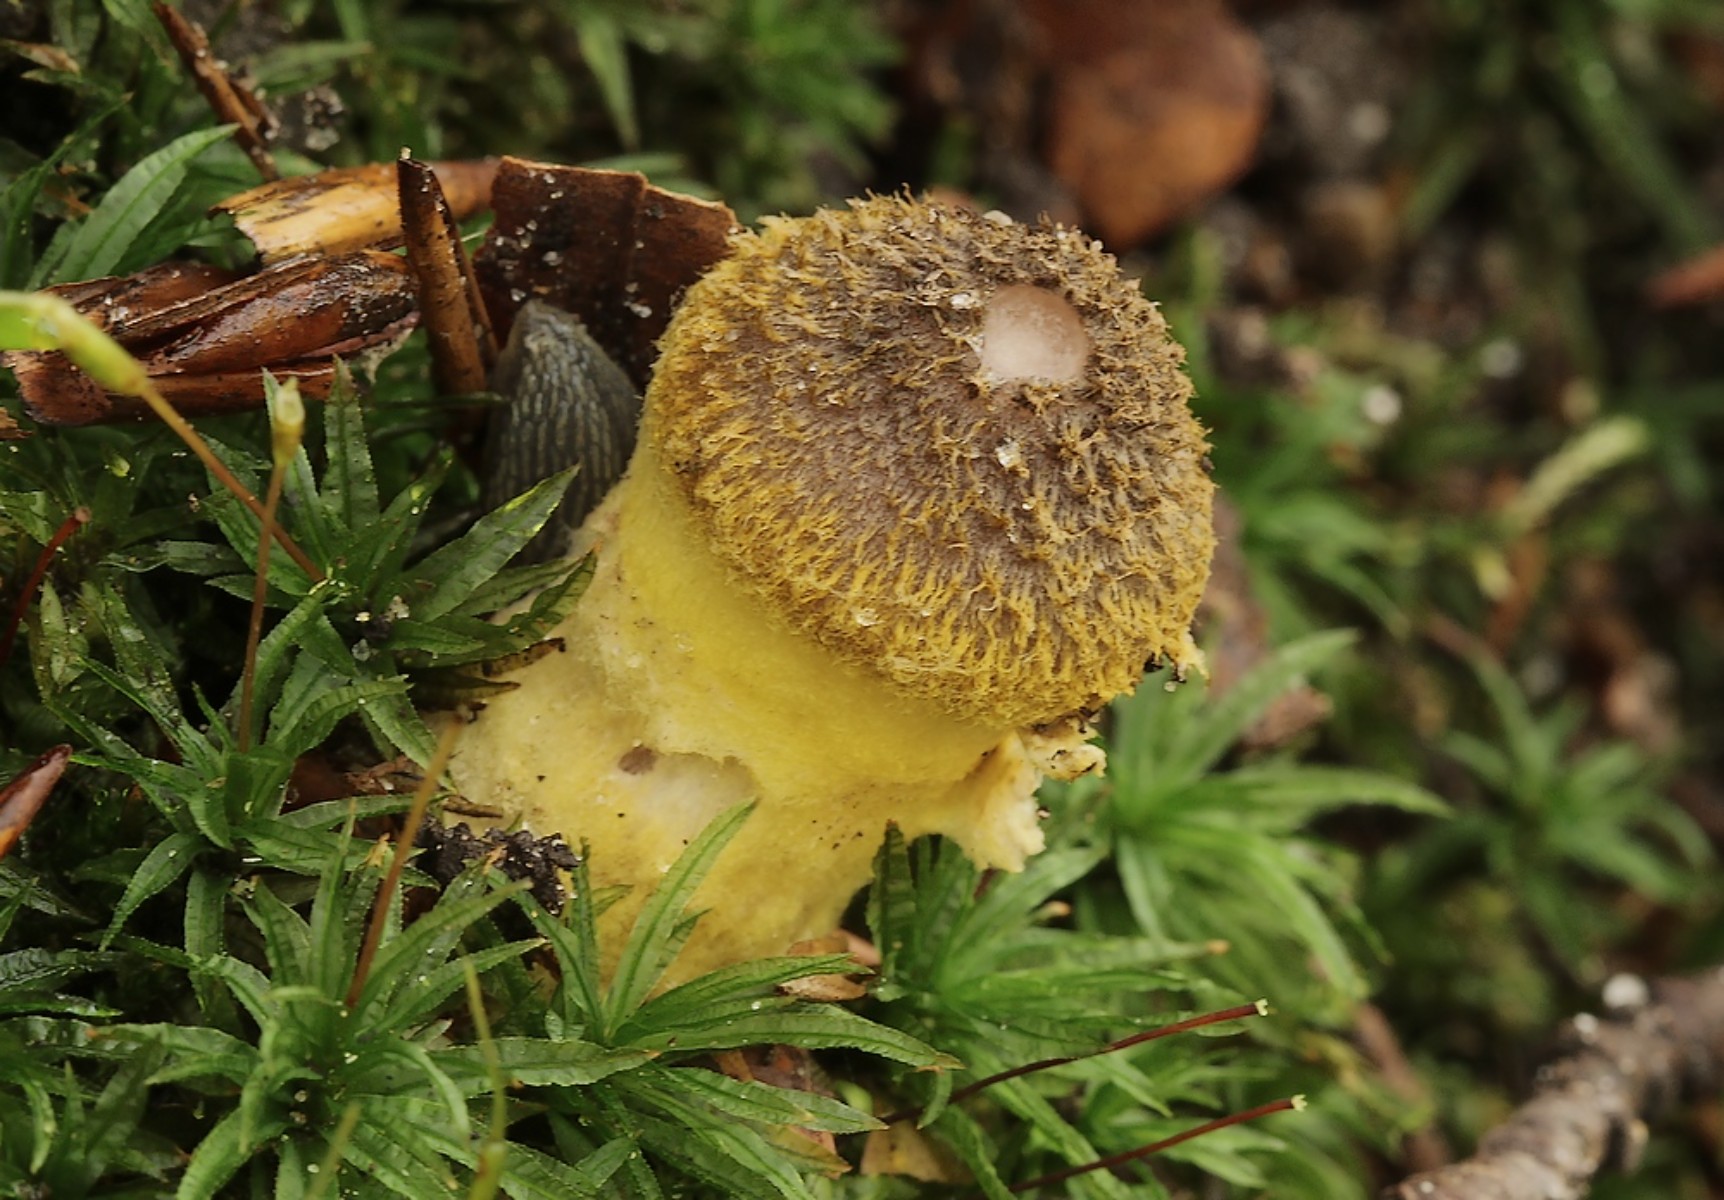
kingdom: Fungi
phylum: Basidiomycota
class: Agaricomycetes
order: Agaricales
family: Physalacriaceae
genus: Armillaria
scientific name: Armillaria lutea
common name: køllestokket honningsvamp
